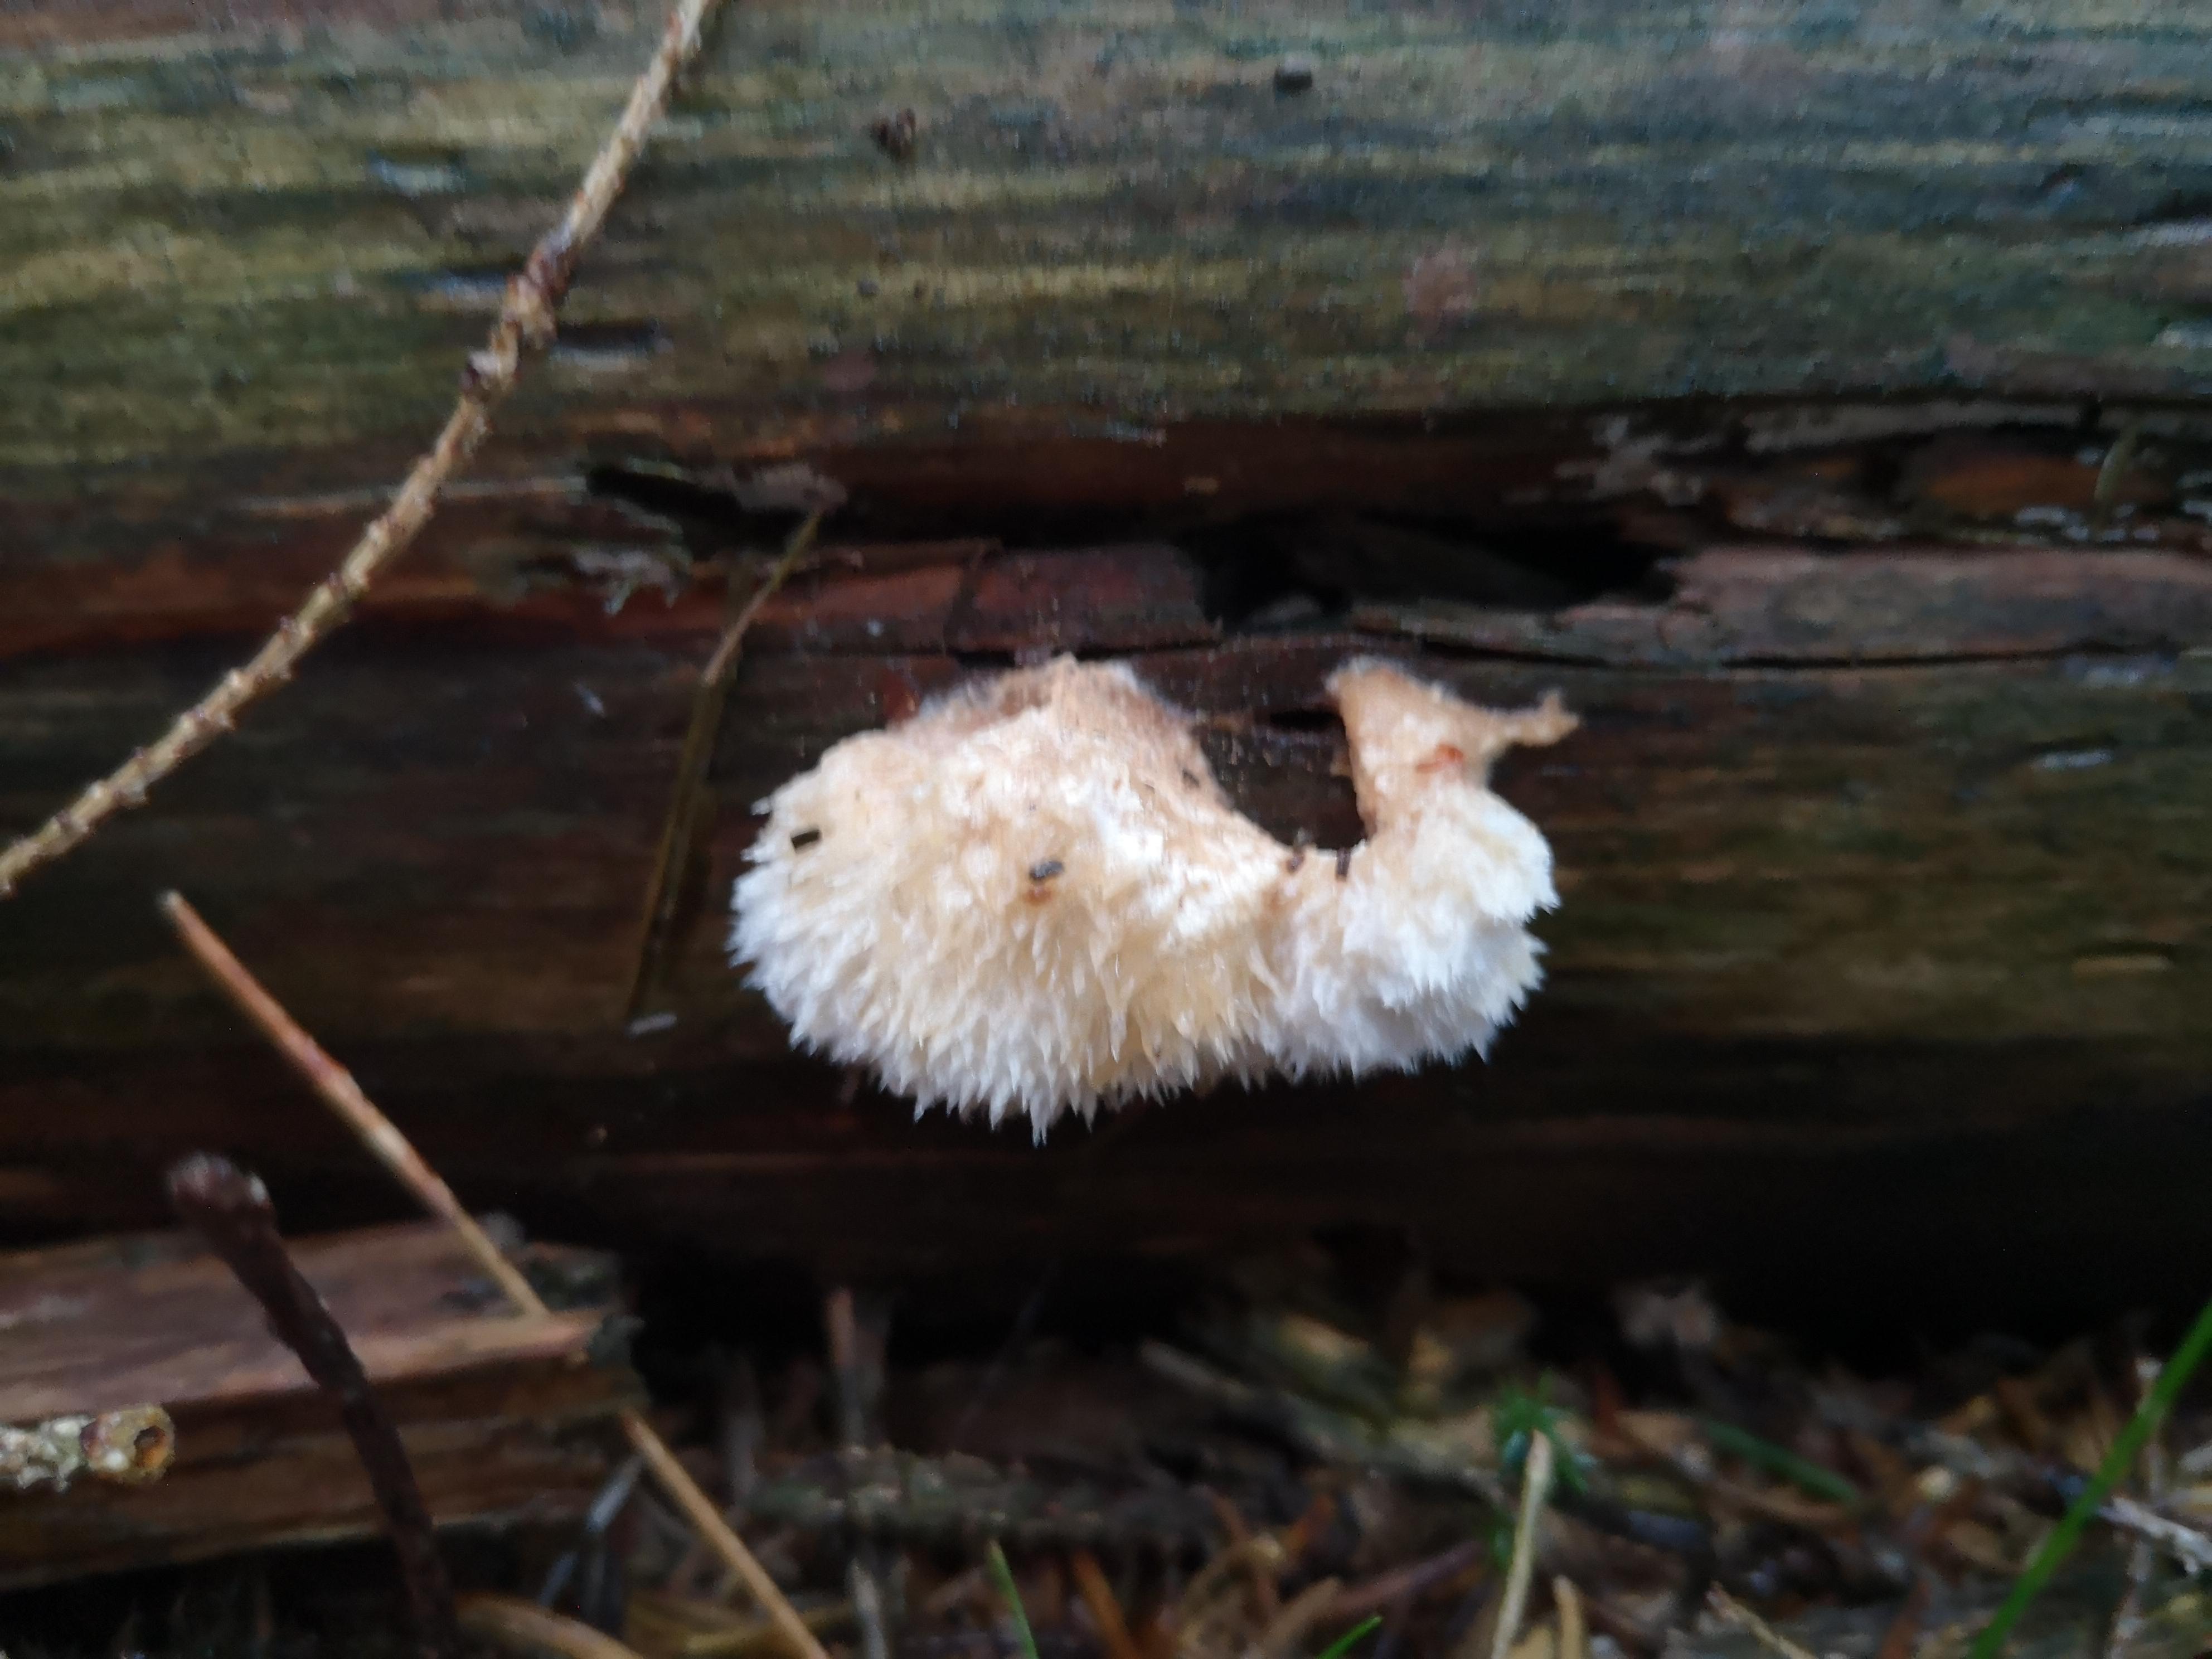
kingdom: Fungi
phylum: Basidiomycota
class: Agaricomycetes
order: Polyporales
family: Dacryobolaceae
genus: Postia
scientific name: Postia ptychogaster
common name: støvende kødporesvamp
